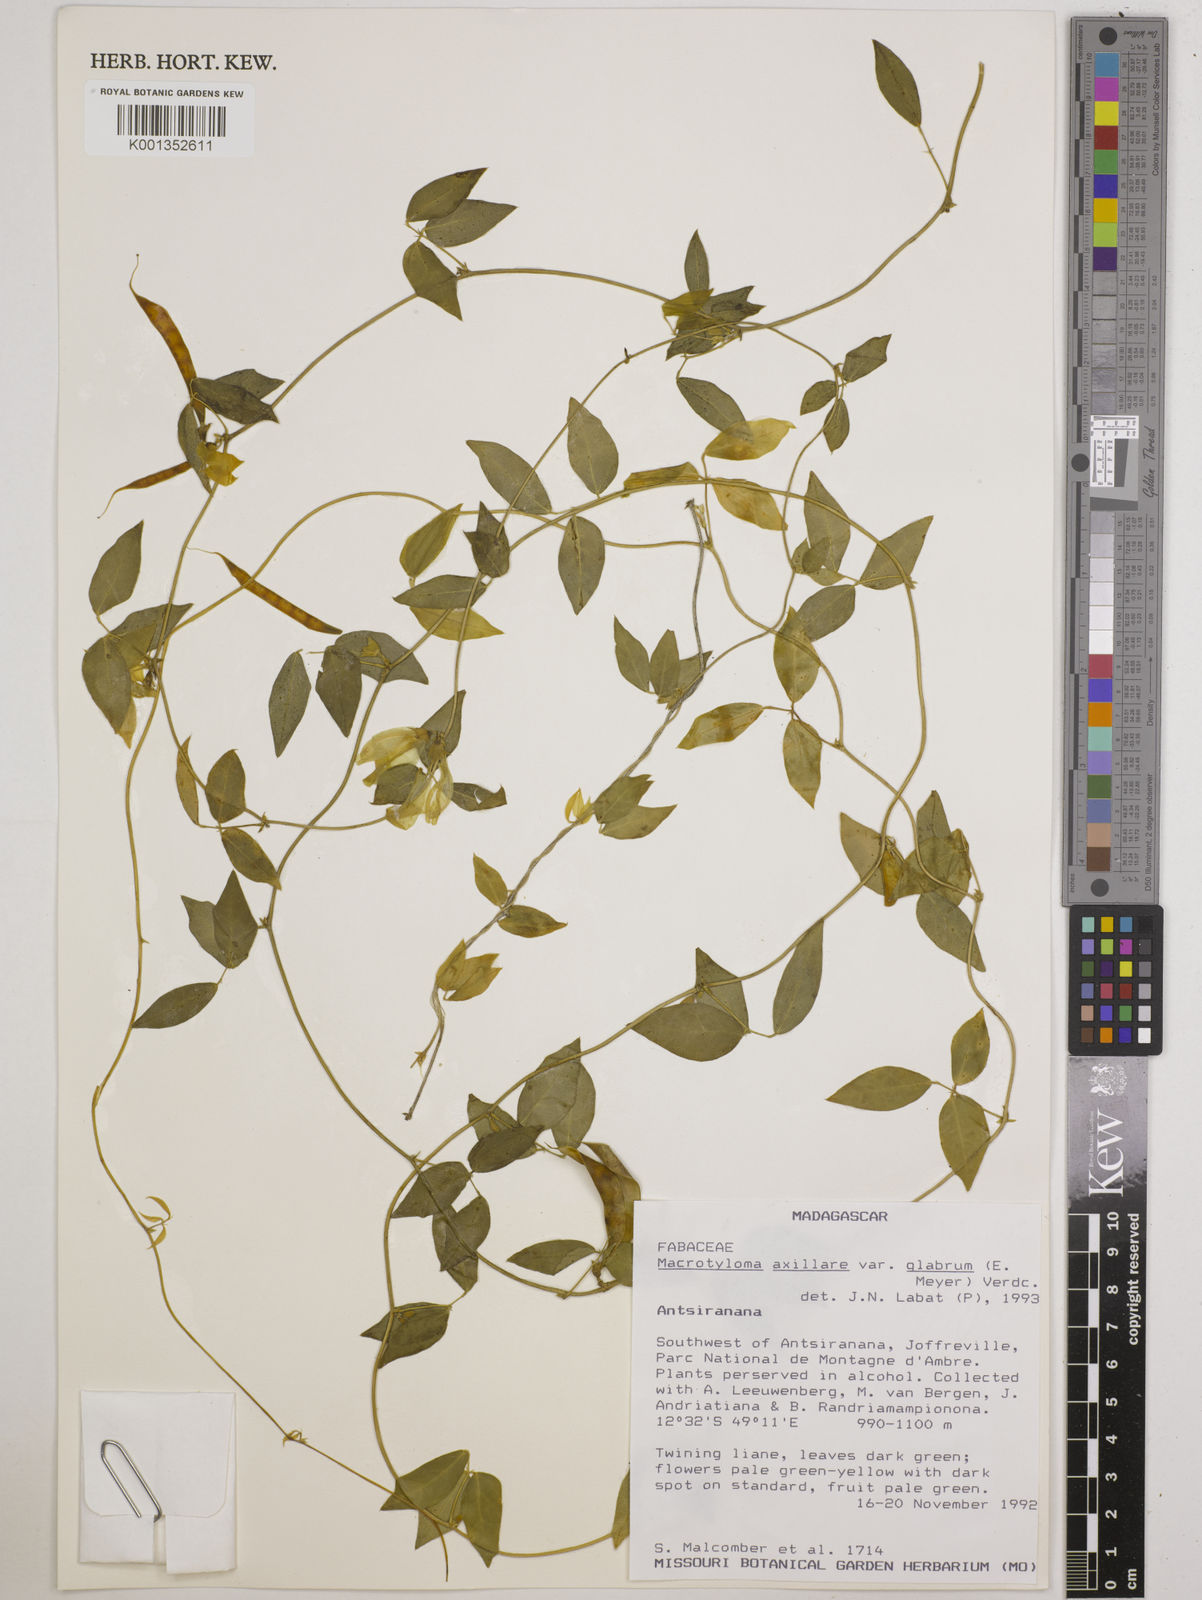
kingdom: Plantae
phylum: Tracheophyta
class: Magnoliopsida
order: Fabales
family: Fabaceae
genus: Macrotyloma
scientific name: Macrotyloma
